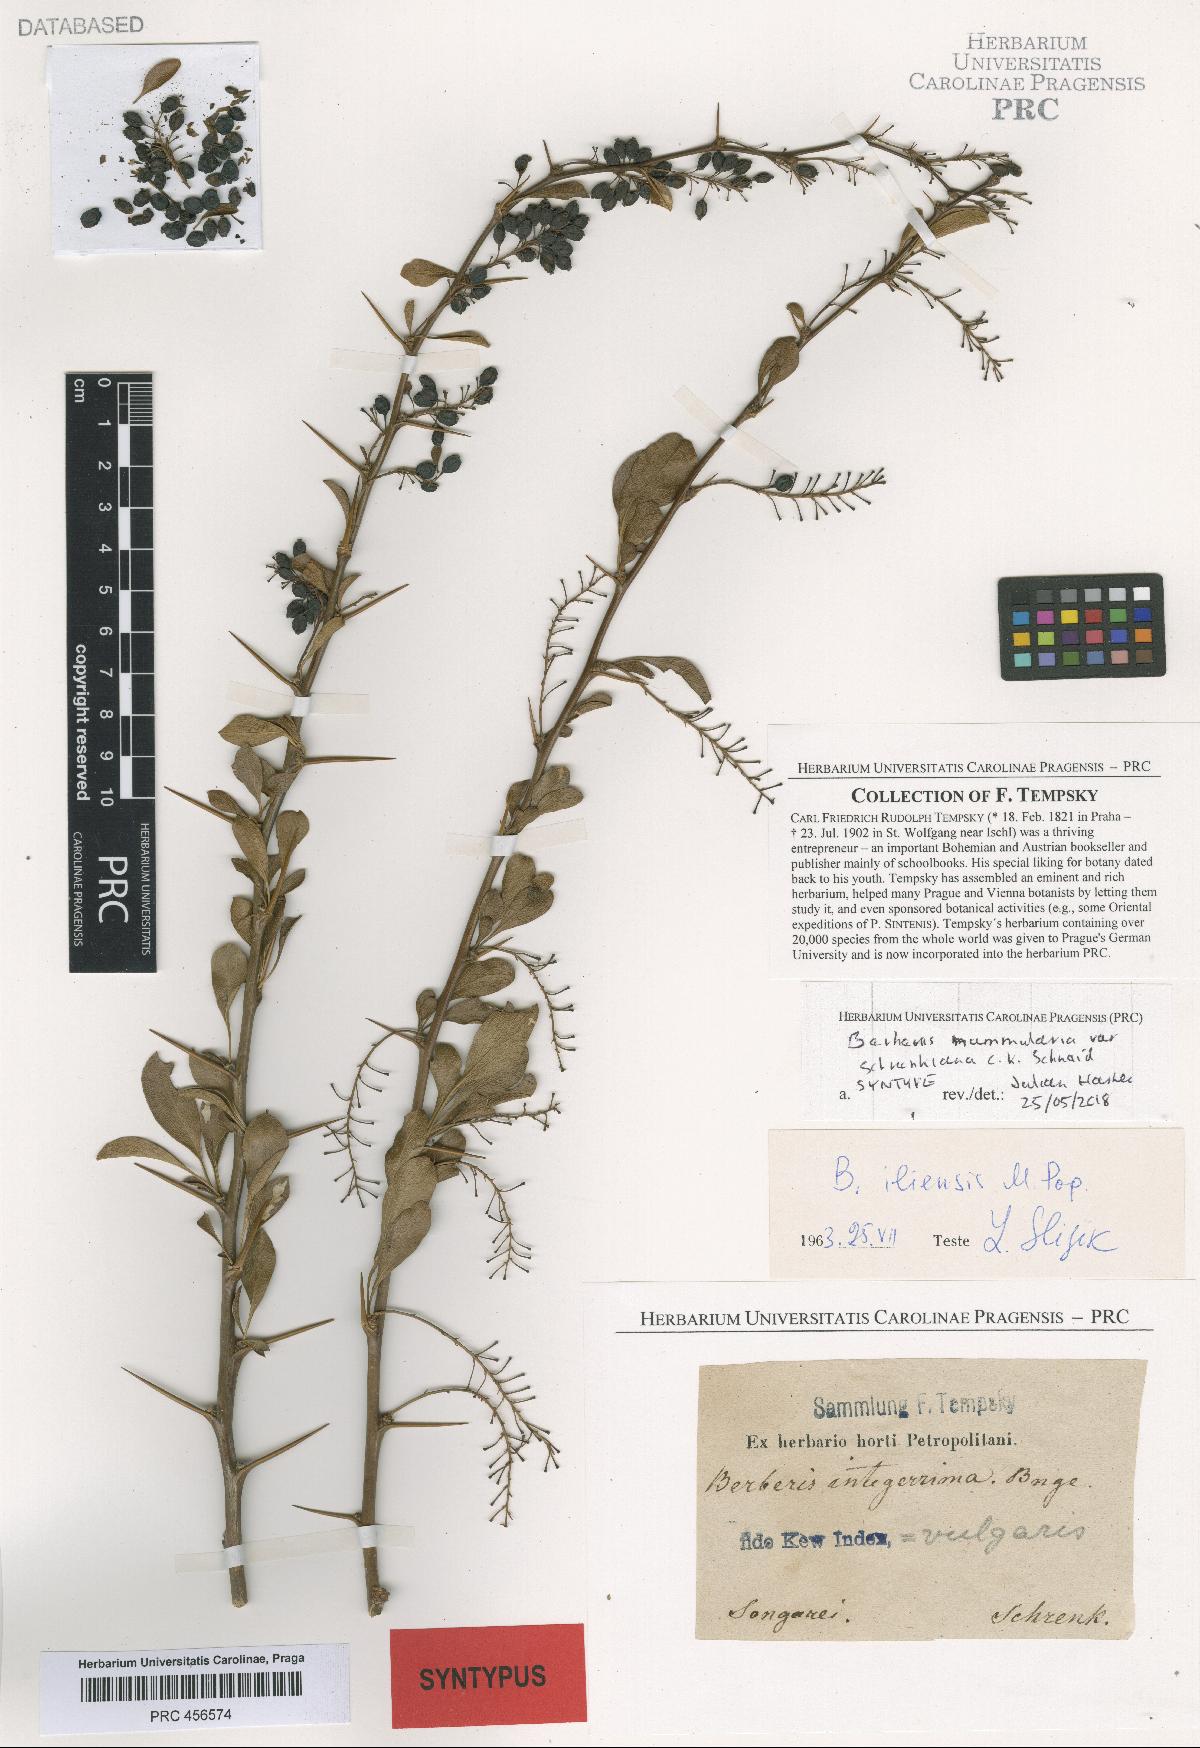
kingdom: Plantae
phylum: Tracheophyta
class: Magnoliopsida
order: Ranunculales
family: Berberidaceae
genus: Berberis
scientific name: Berberis integerrima
